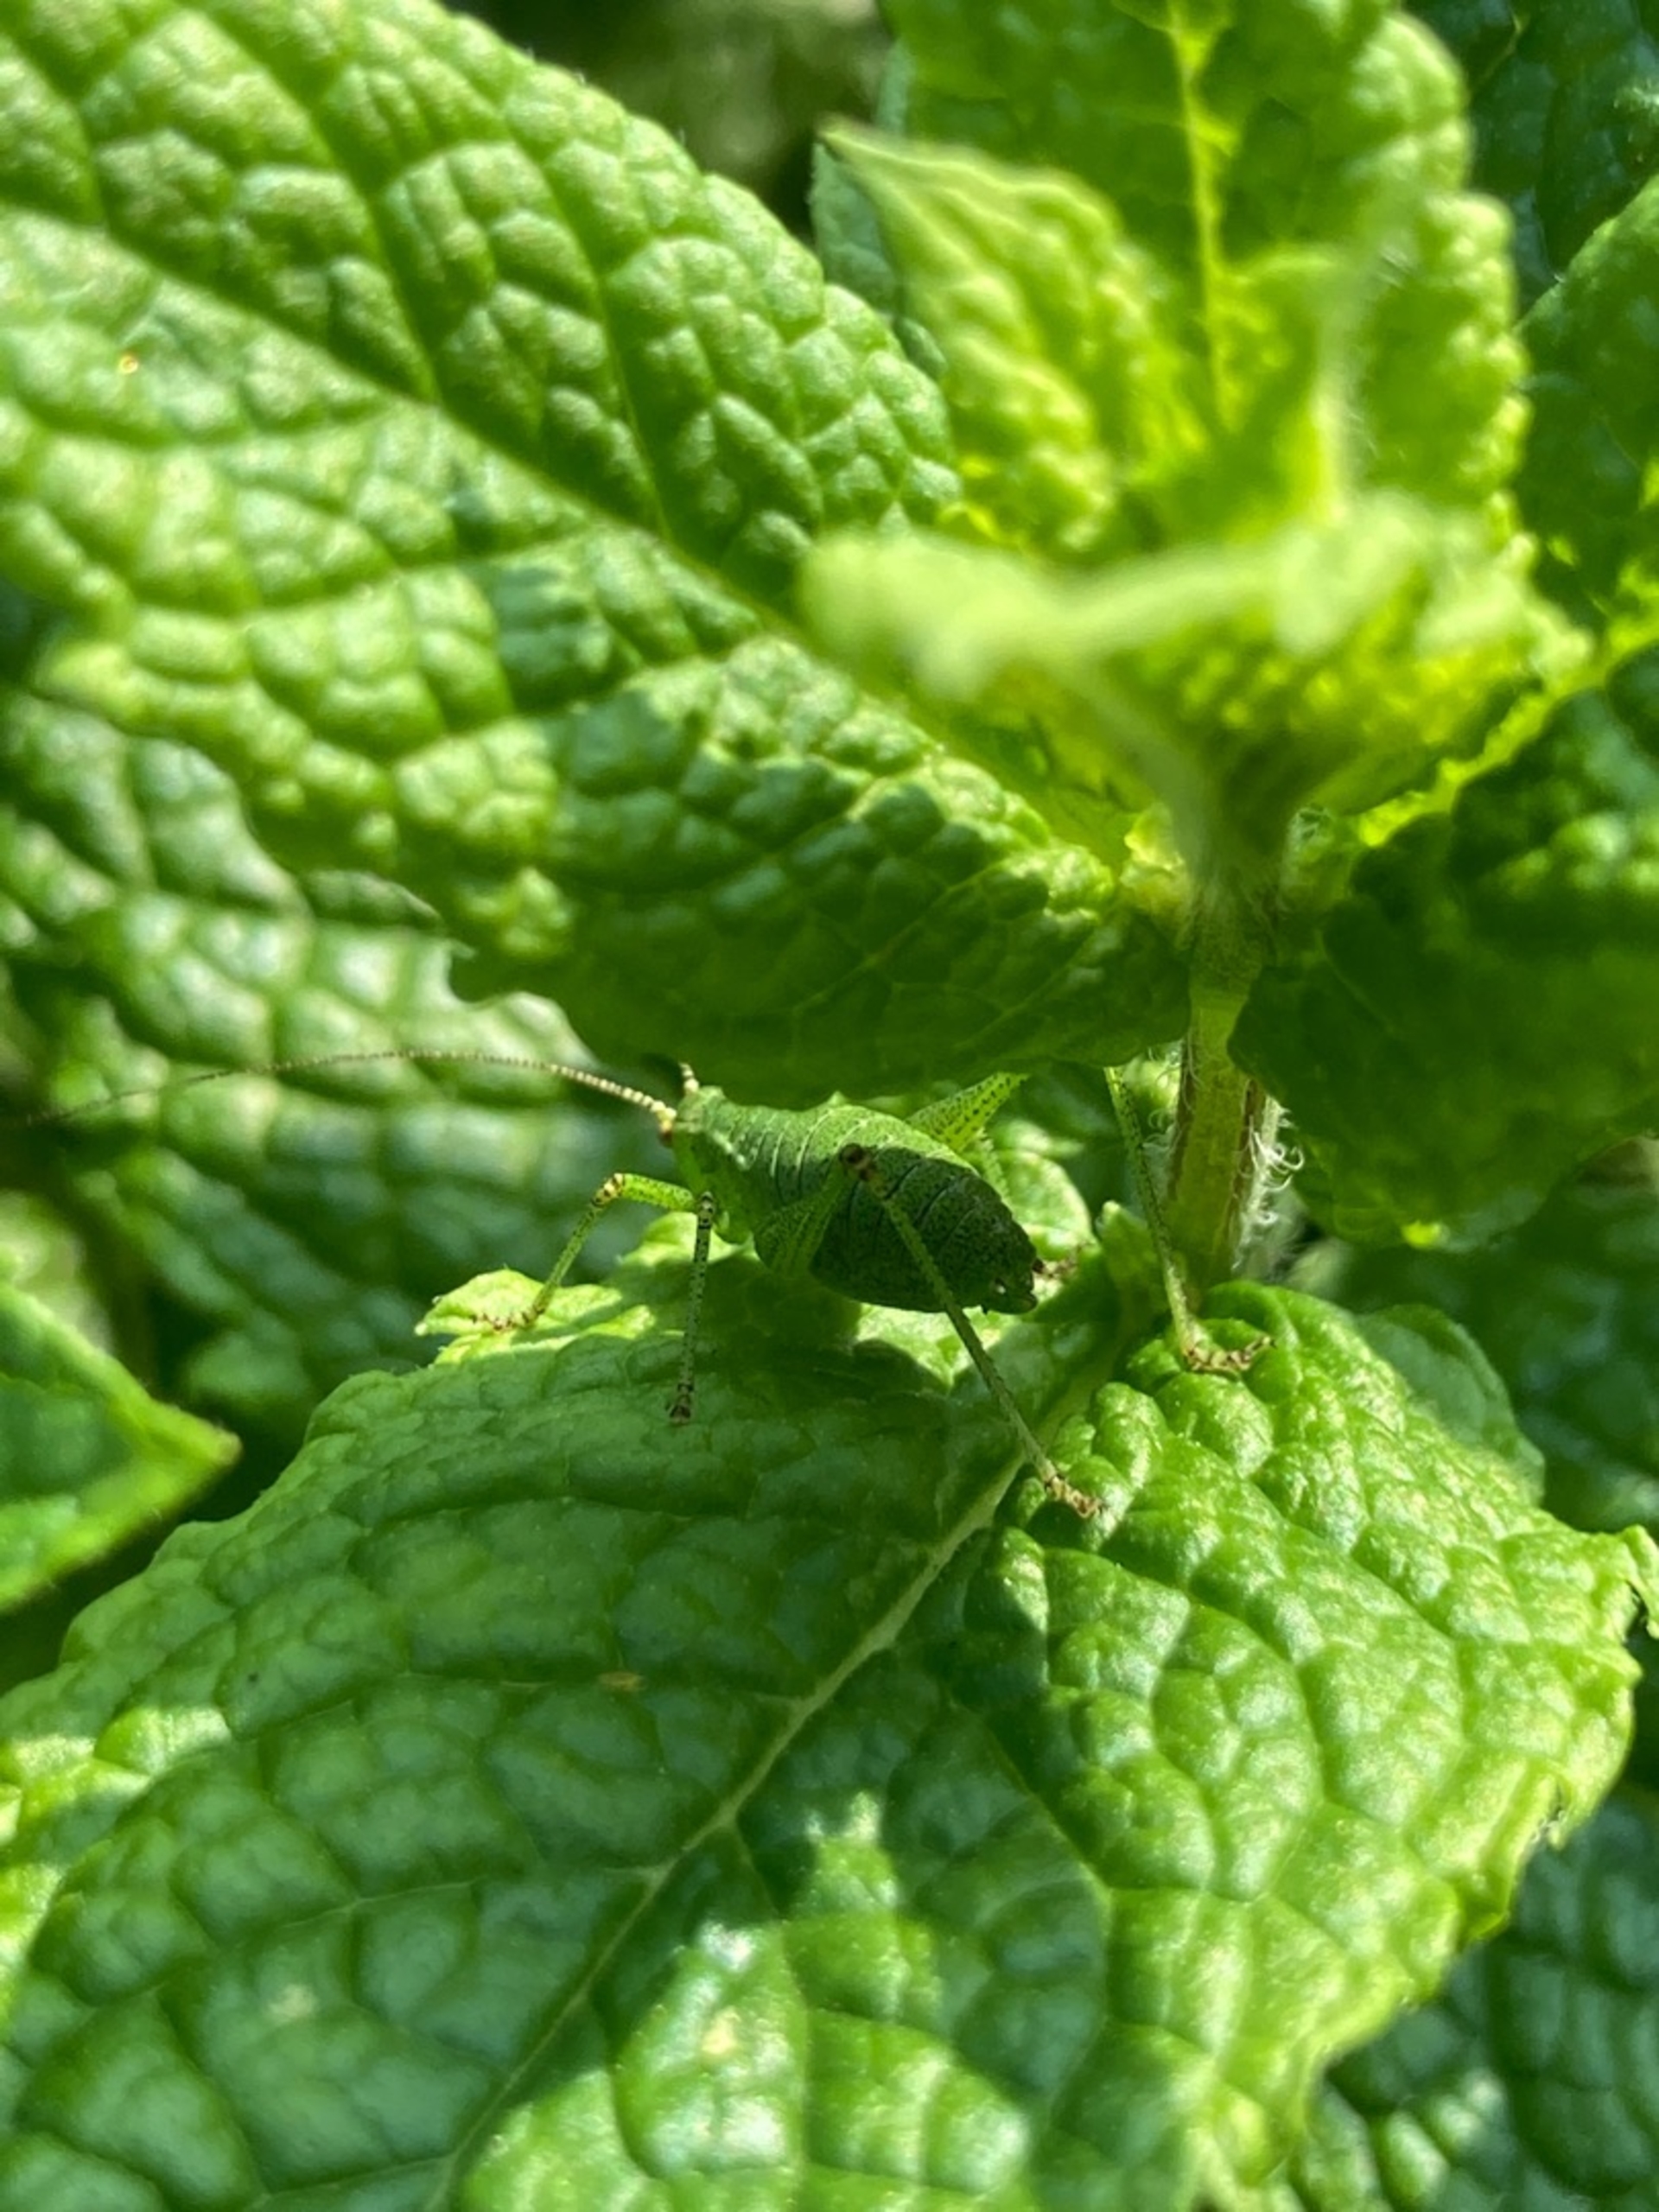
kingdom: Animalia
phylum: Arthropoda
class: Insecta
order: Orthoptera
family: Tettigoniidae
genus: Leptophyes
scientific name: Leptophyes punctatissima
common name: Krumknivgræshoppe
